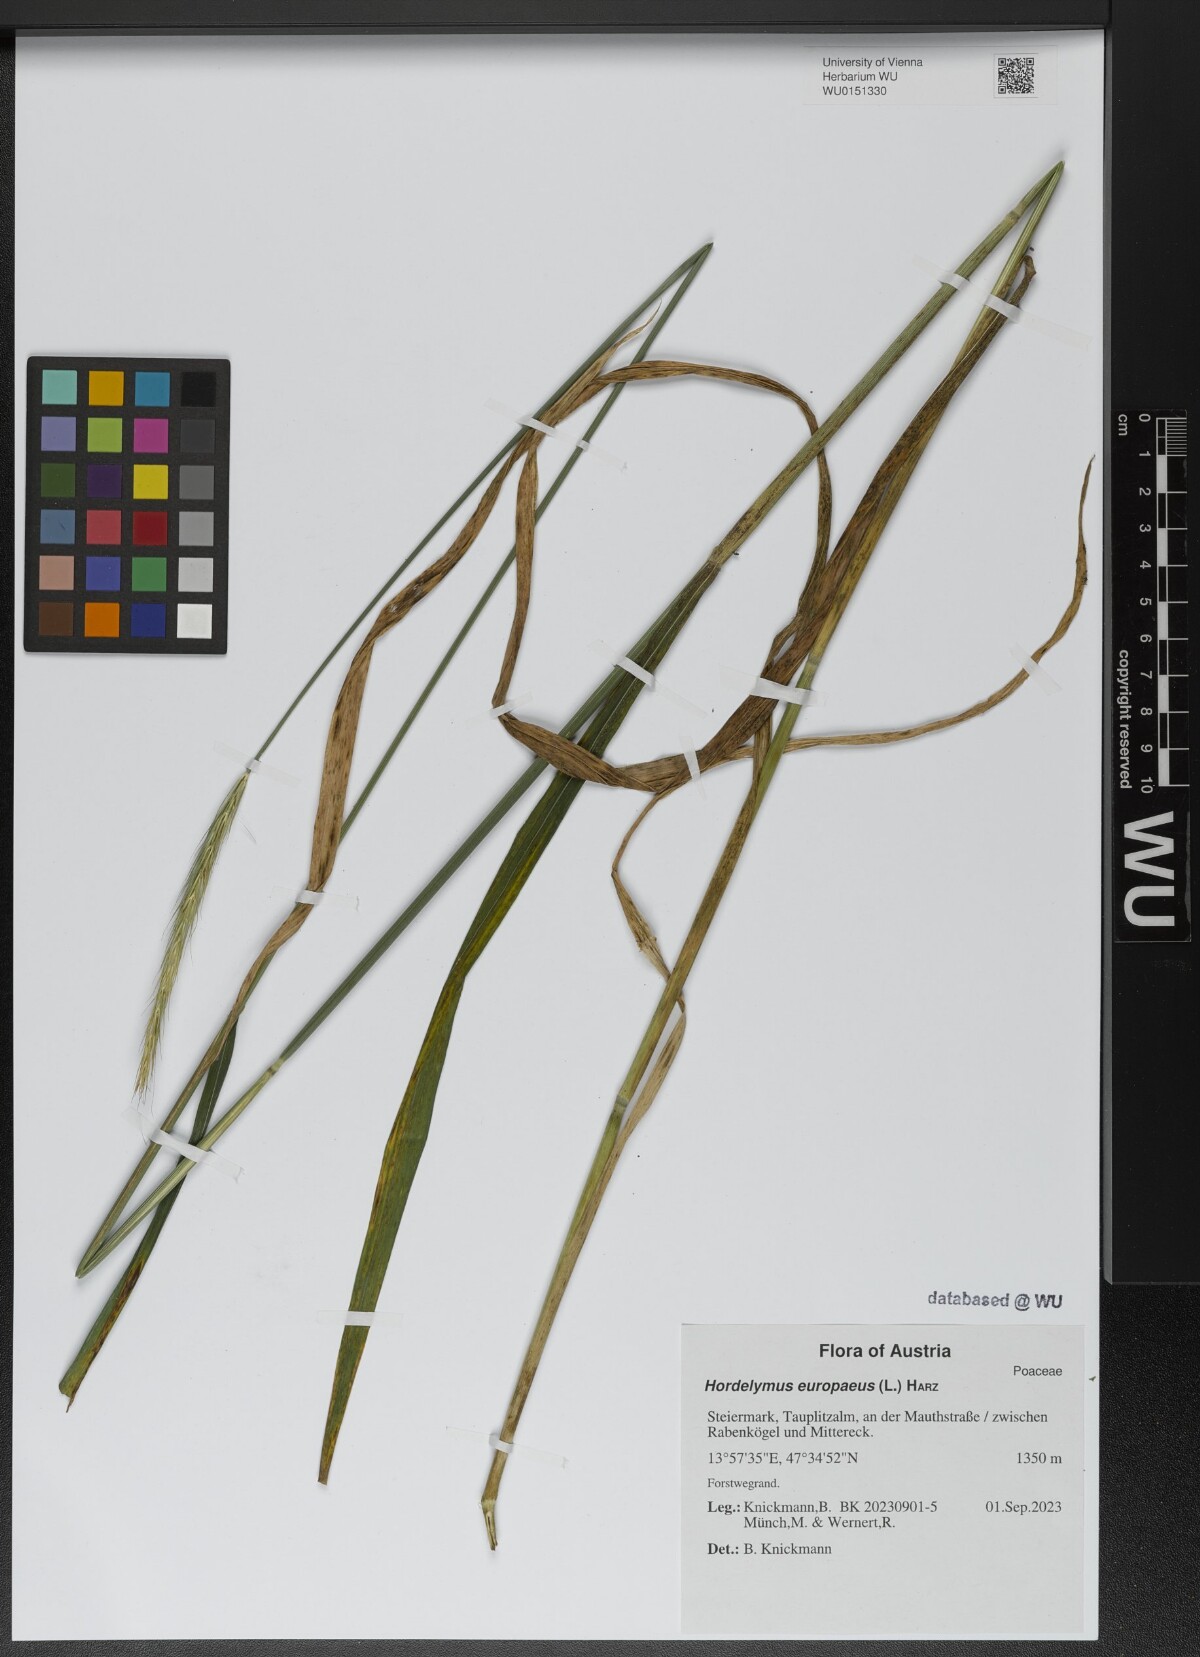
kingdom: Plantae
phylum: Tracheophyta
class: Liliopsida
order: Poales
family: Poaceae
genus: Hordelymus
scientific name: Hordelymus europaeus
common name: Wood-barley
